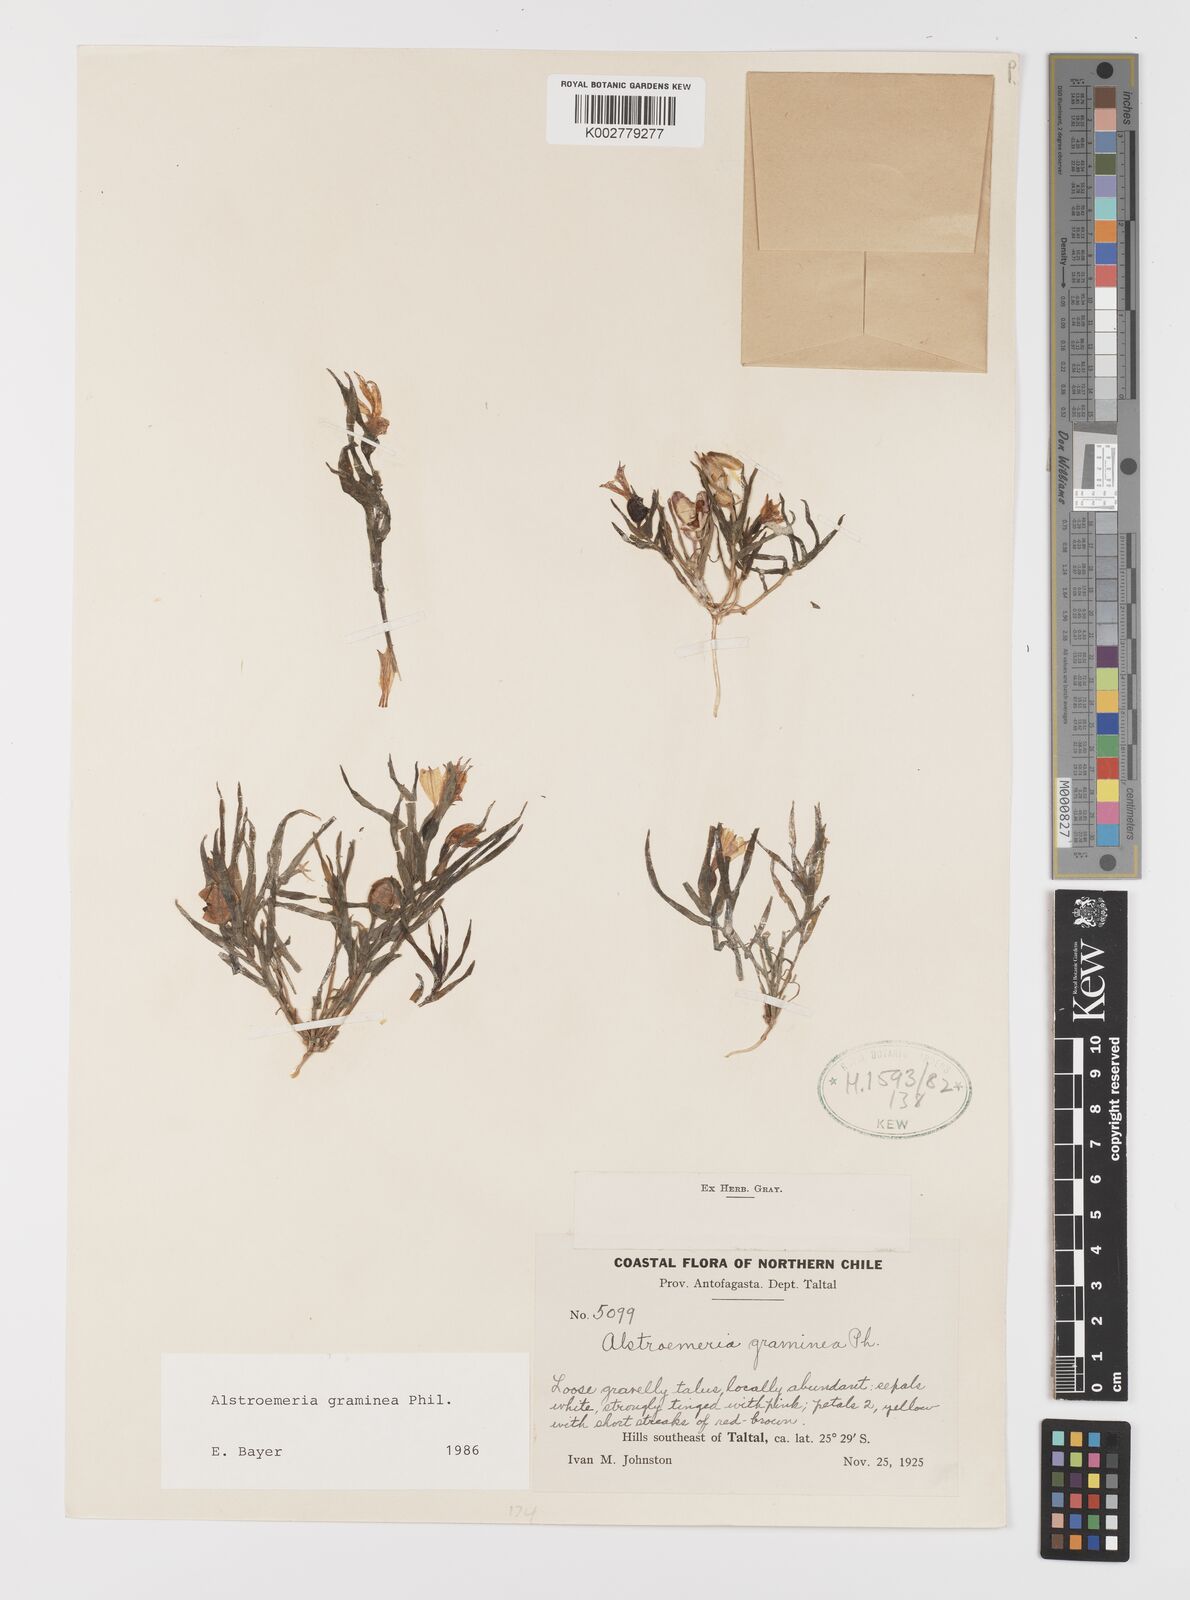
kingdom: Plantae
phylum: Tracheophyta
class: Liliopsida
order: Liliales
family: Alstroemeriaceae
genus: Alstroemeria
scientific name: Alstroemeria graminea
